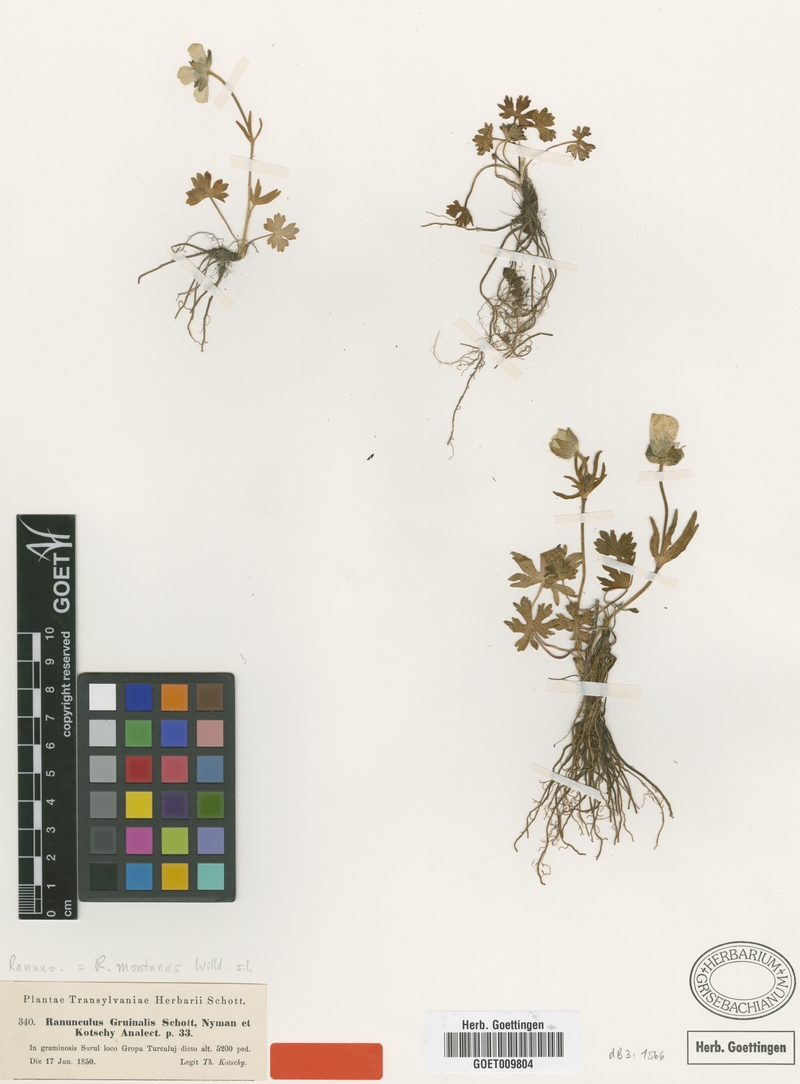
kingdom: Plantae
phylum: Tracheophyta
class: Magnoliopsida
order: Ranunculales
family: Ranunculaceae
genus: Ranunculus
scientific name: Ranunculus montanus
